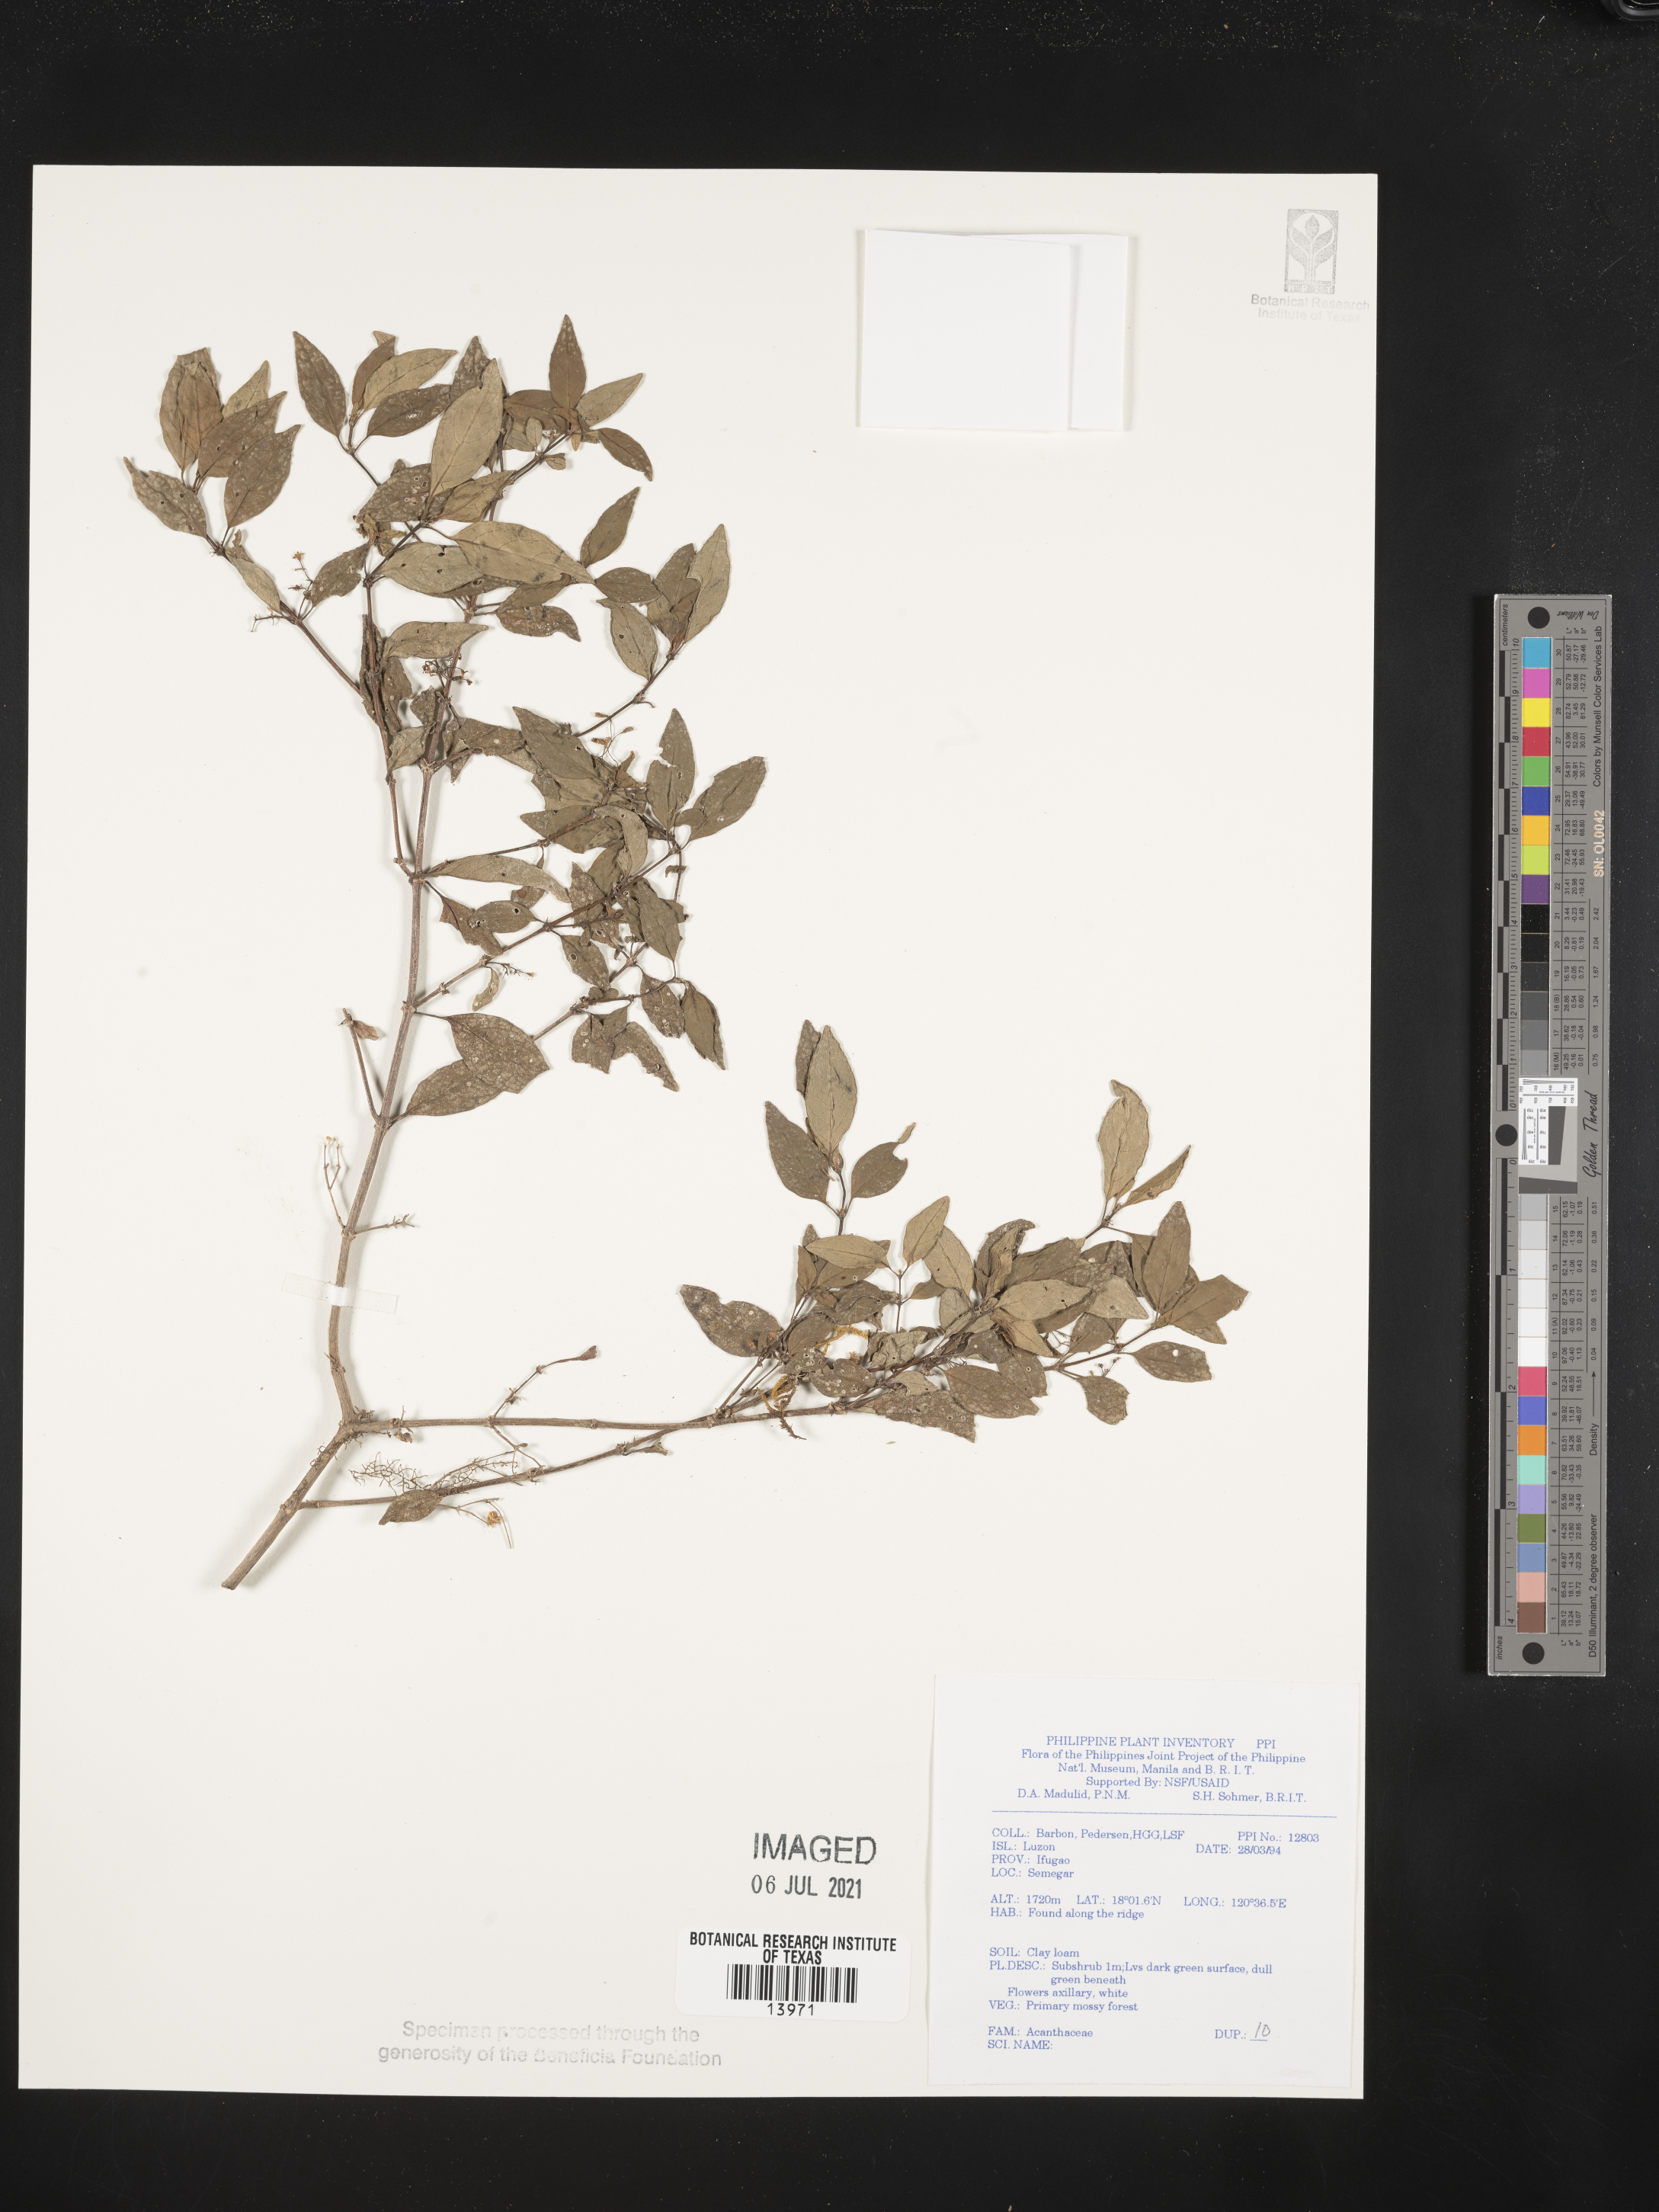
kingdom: Plantae
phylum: Tracheophyta
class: Magnoliopsida
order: Lamiales
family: Acanthaceae
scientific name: Acanthaceae
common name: Acanthaceae
